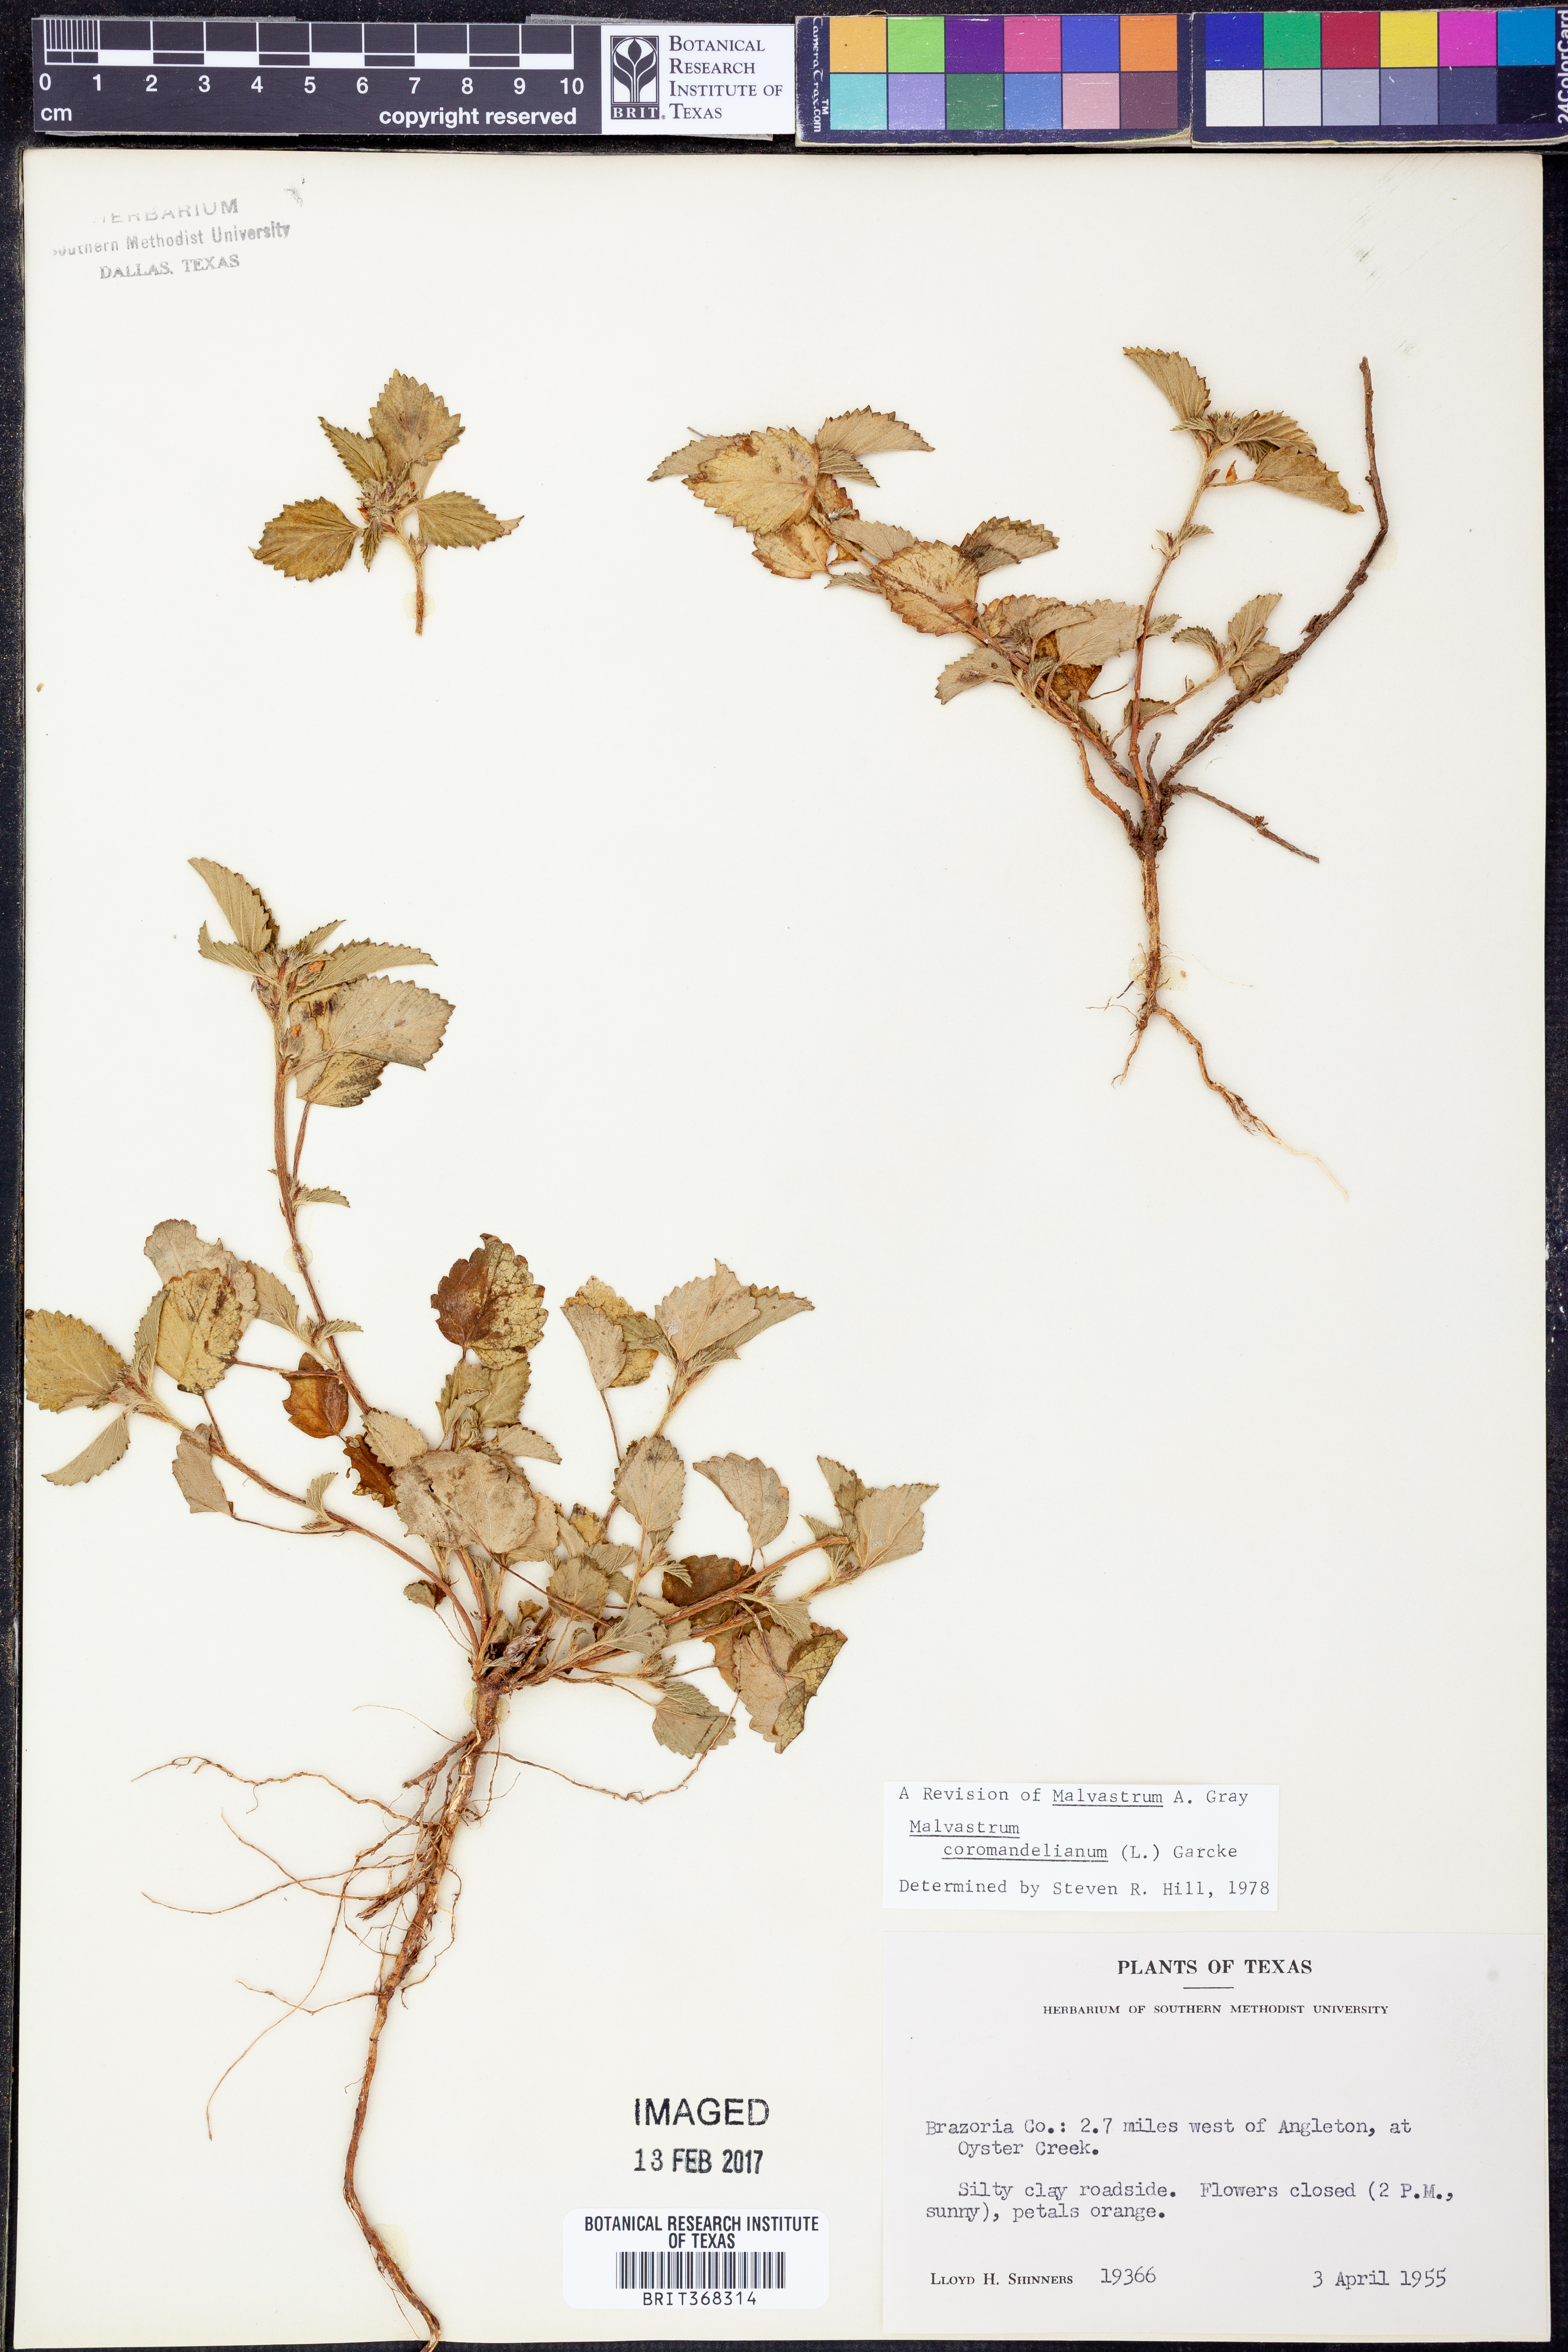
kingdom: Plantae
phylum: Tracheophyta
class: Magnoliopsida
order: Malvales
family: Malvaceae
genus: Malvastrum
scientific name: Malvastrum coromandelianum
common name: Threelobe false mallow
